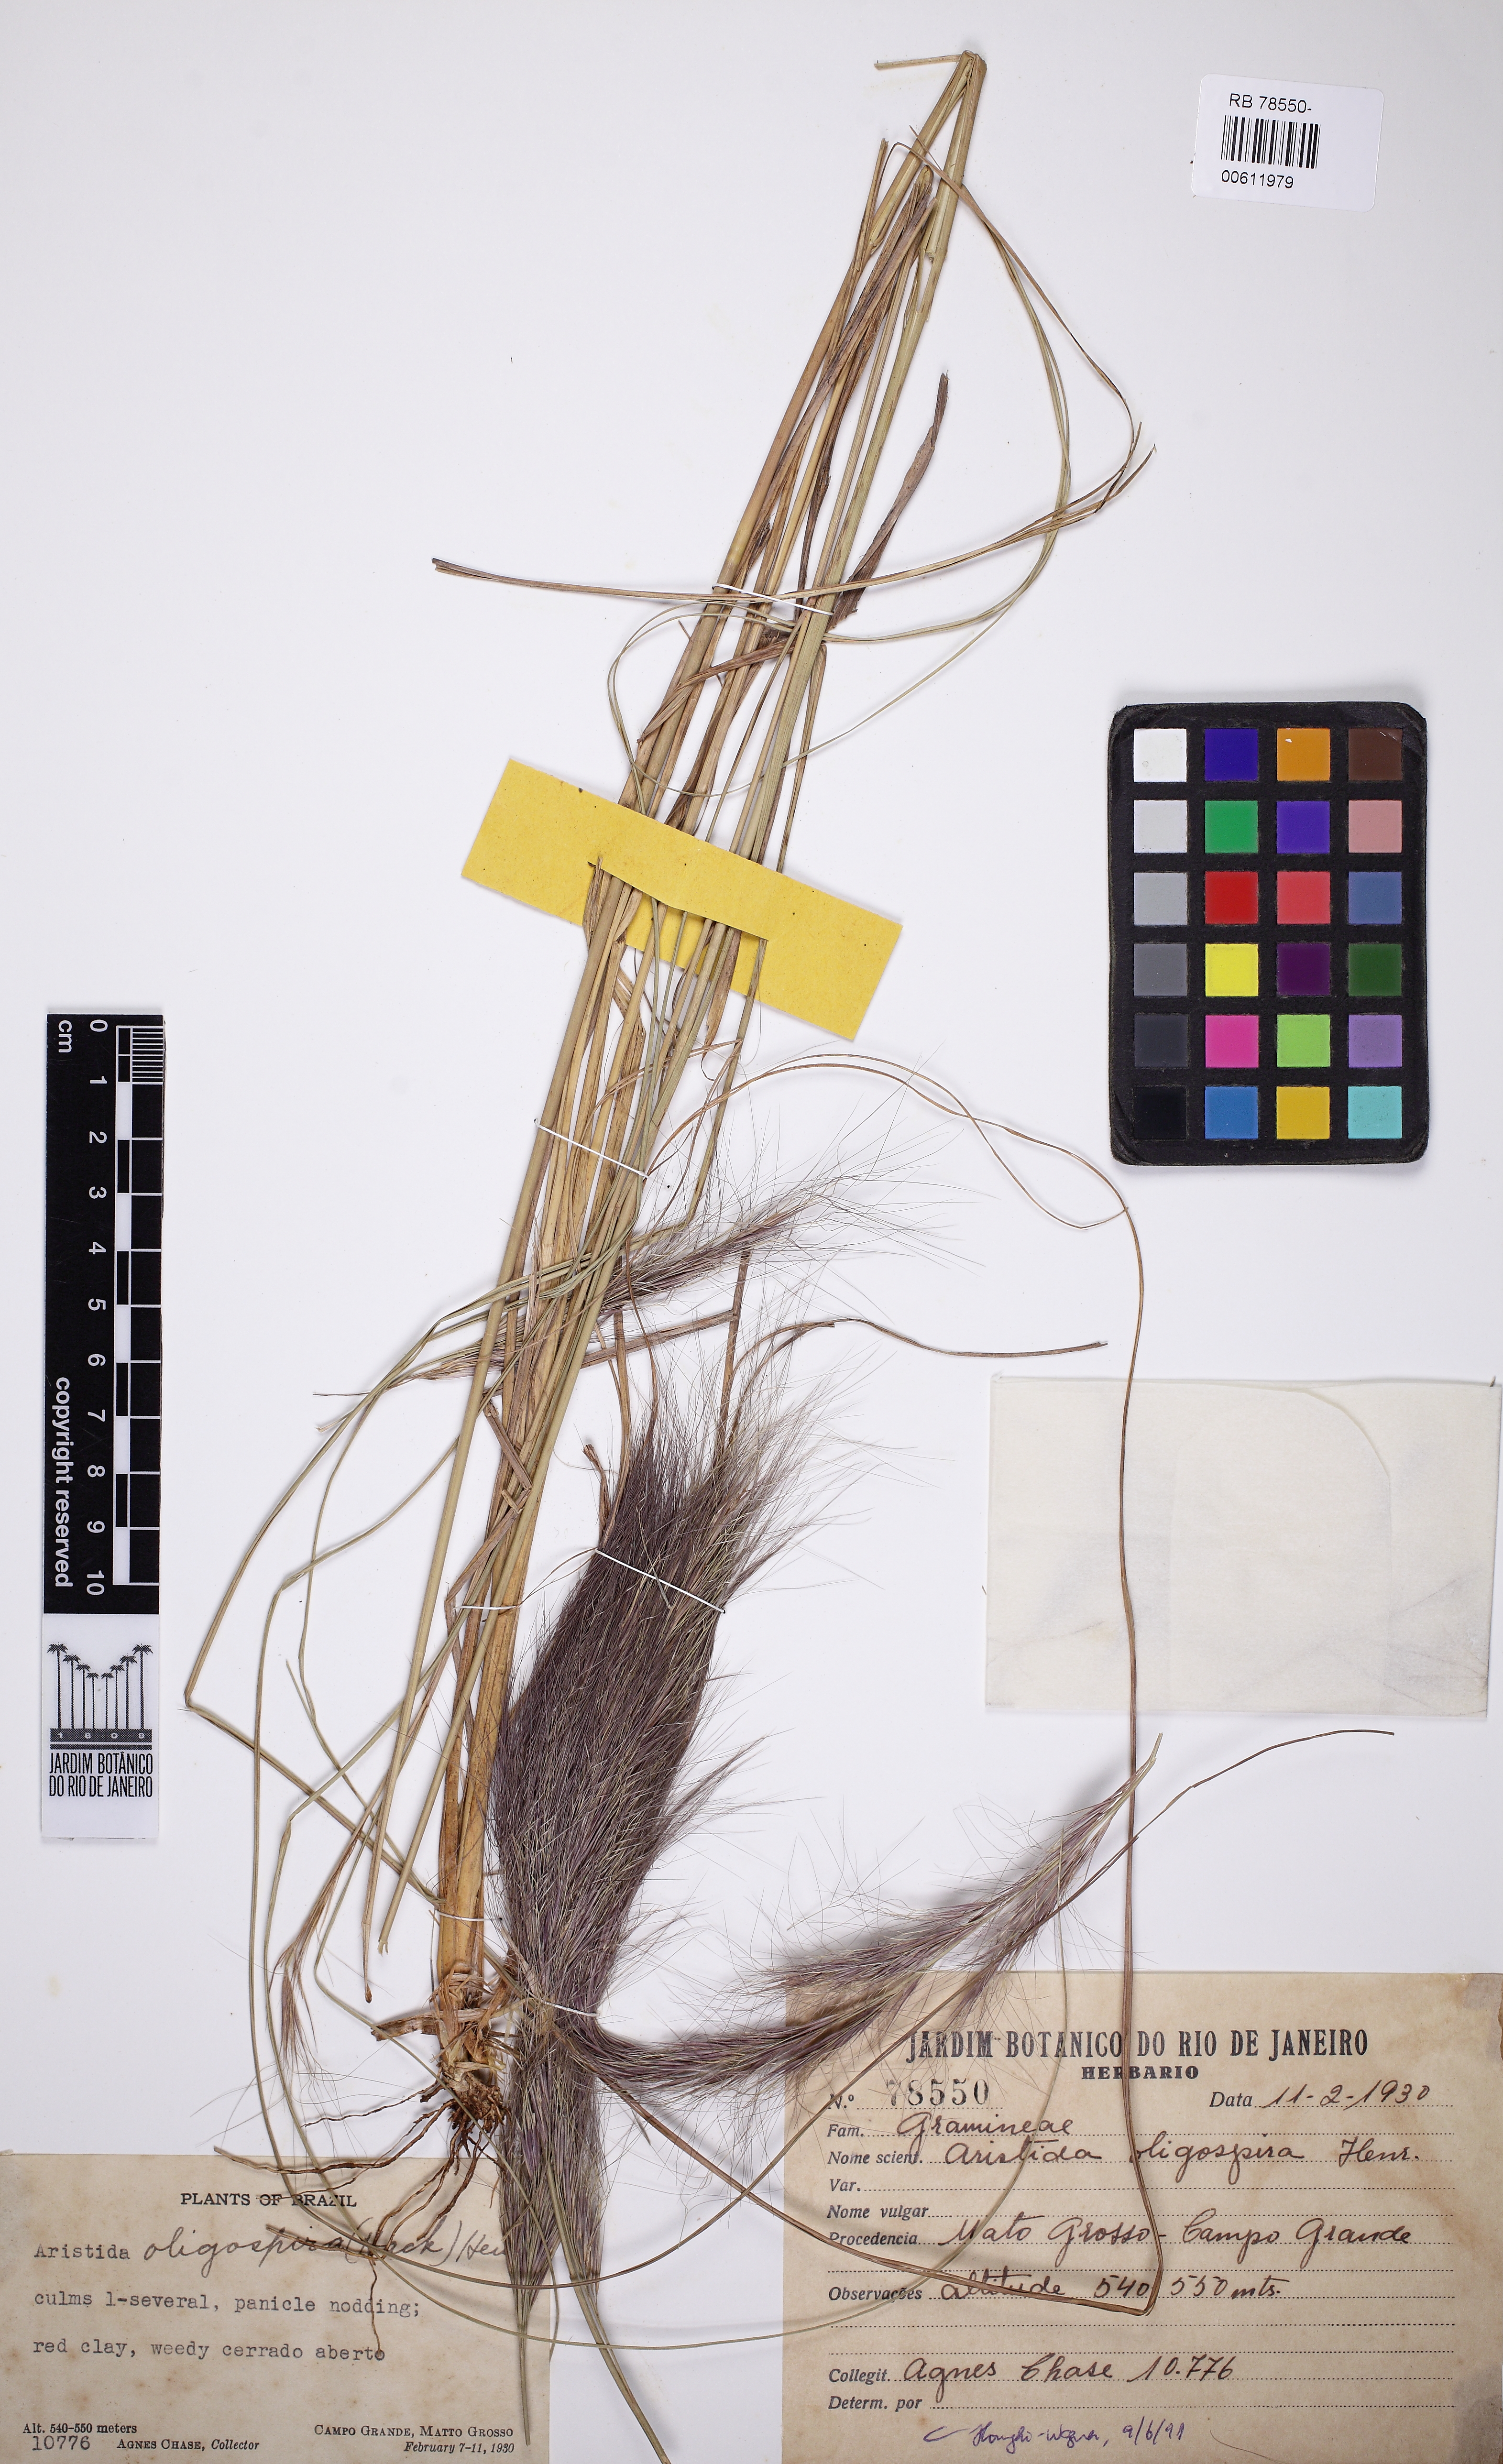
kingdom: Plantae
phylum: Tracheophyta
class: Liliopsida
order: Poales
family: Poaceae
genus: Aristida
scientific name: Aristida oligospira
